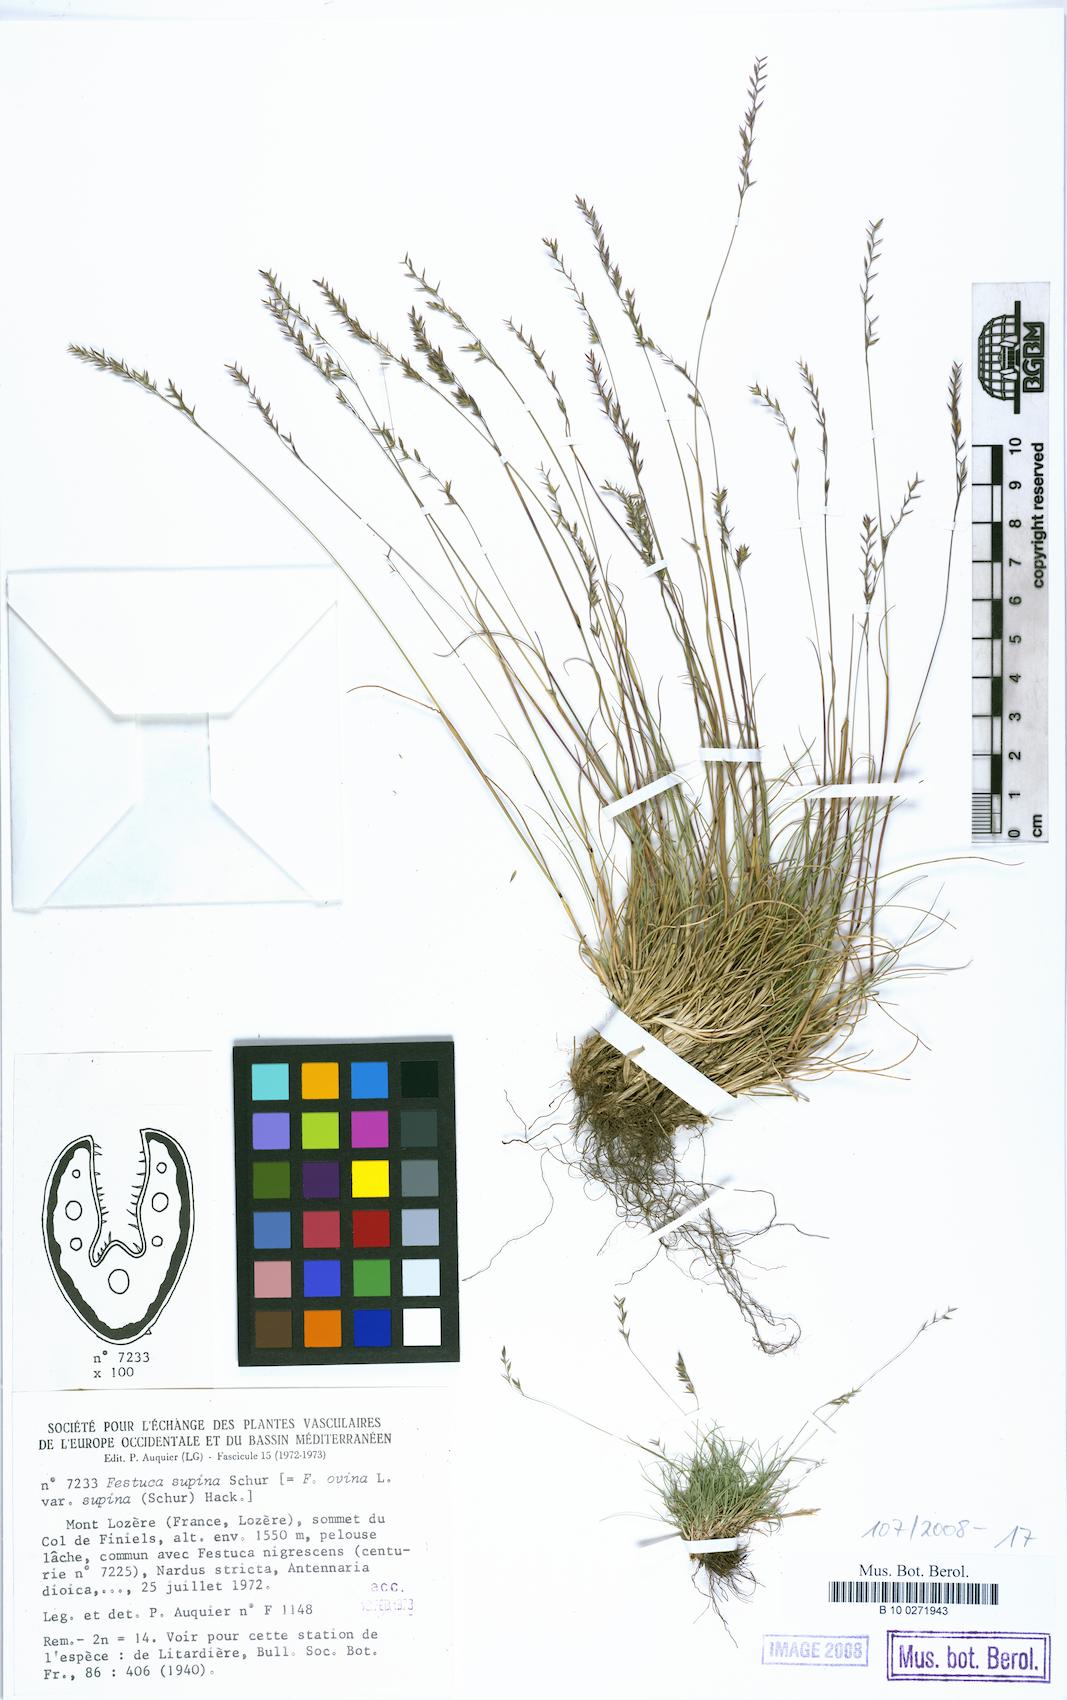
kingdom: Plantae
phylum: Tracheophyta
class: Liliopsida
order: Poales
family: Poaceae
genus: Festuca
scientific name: Festuca supina
